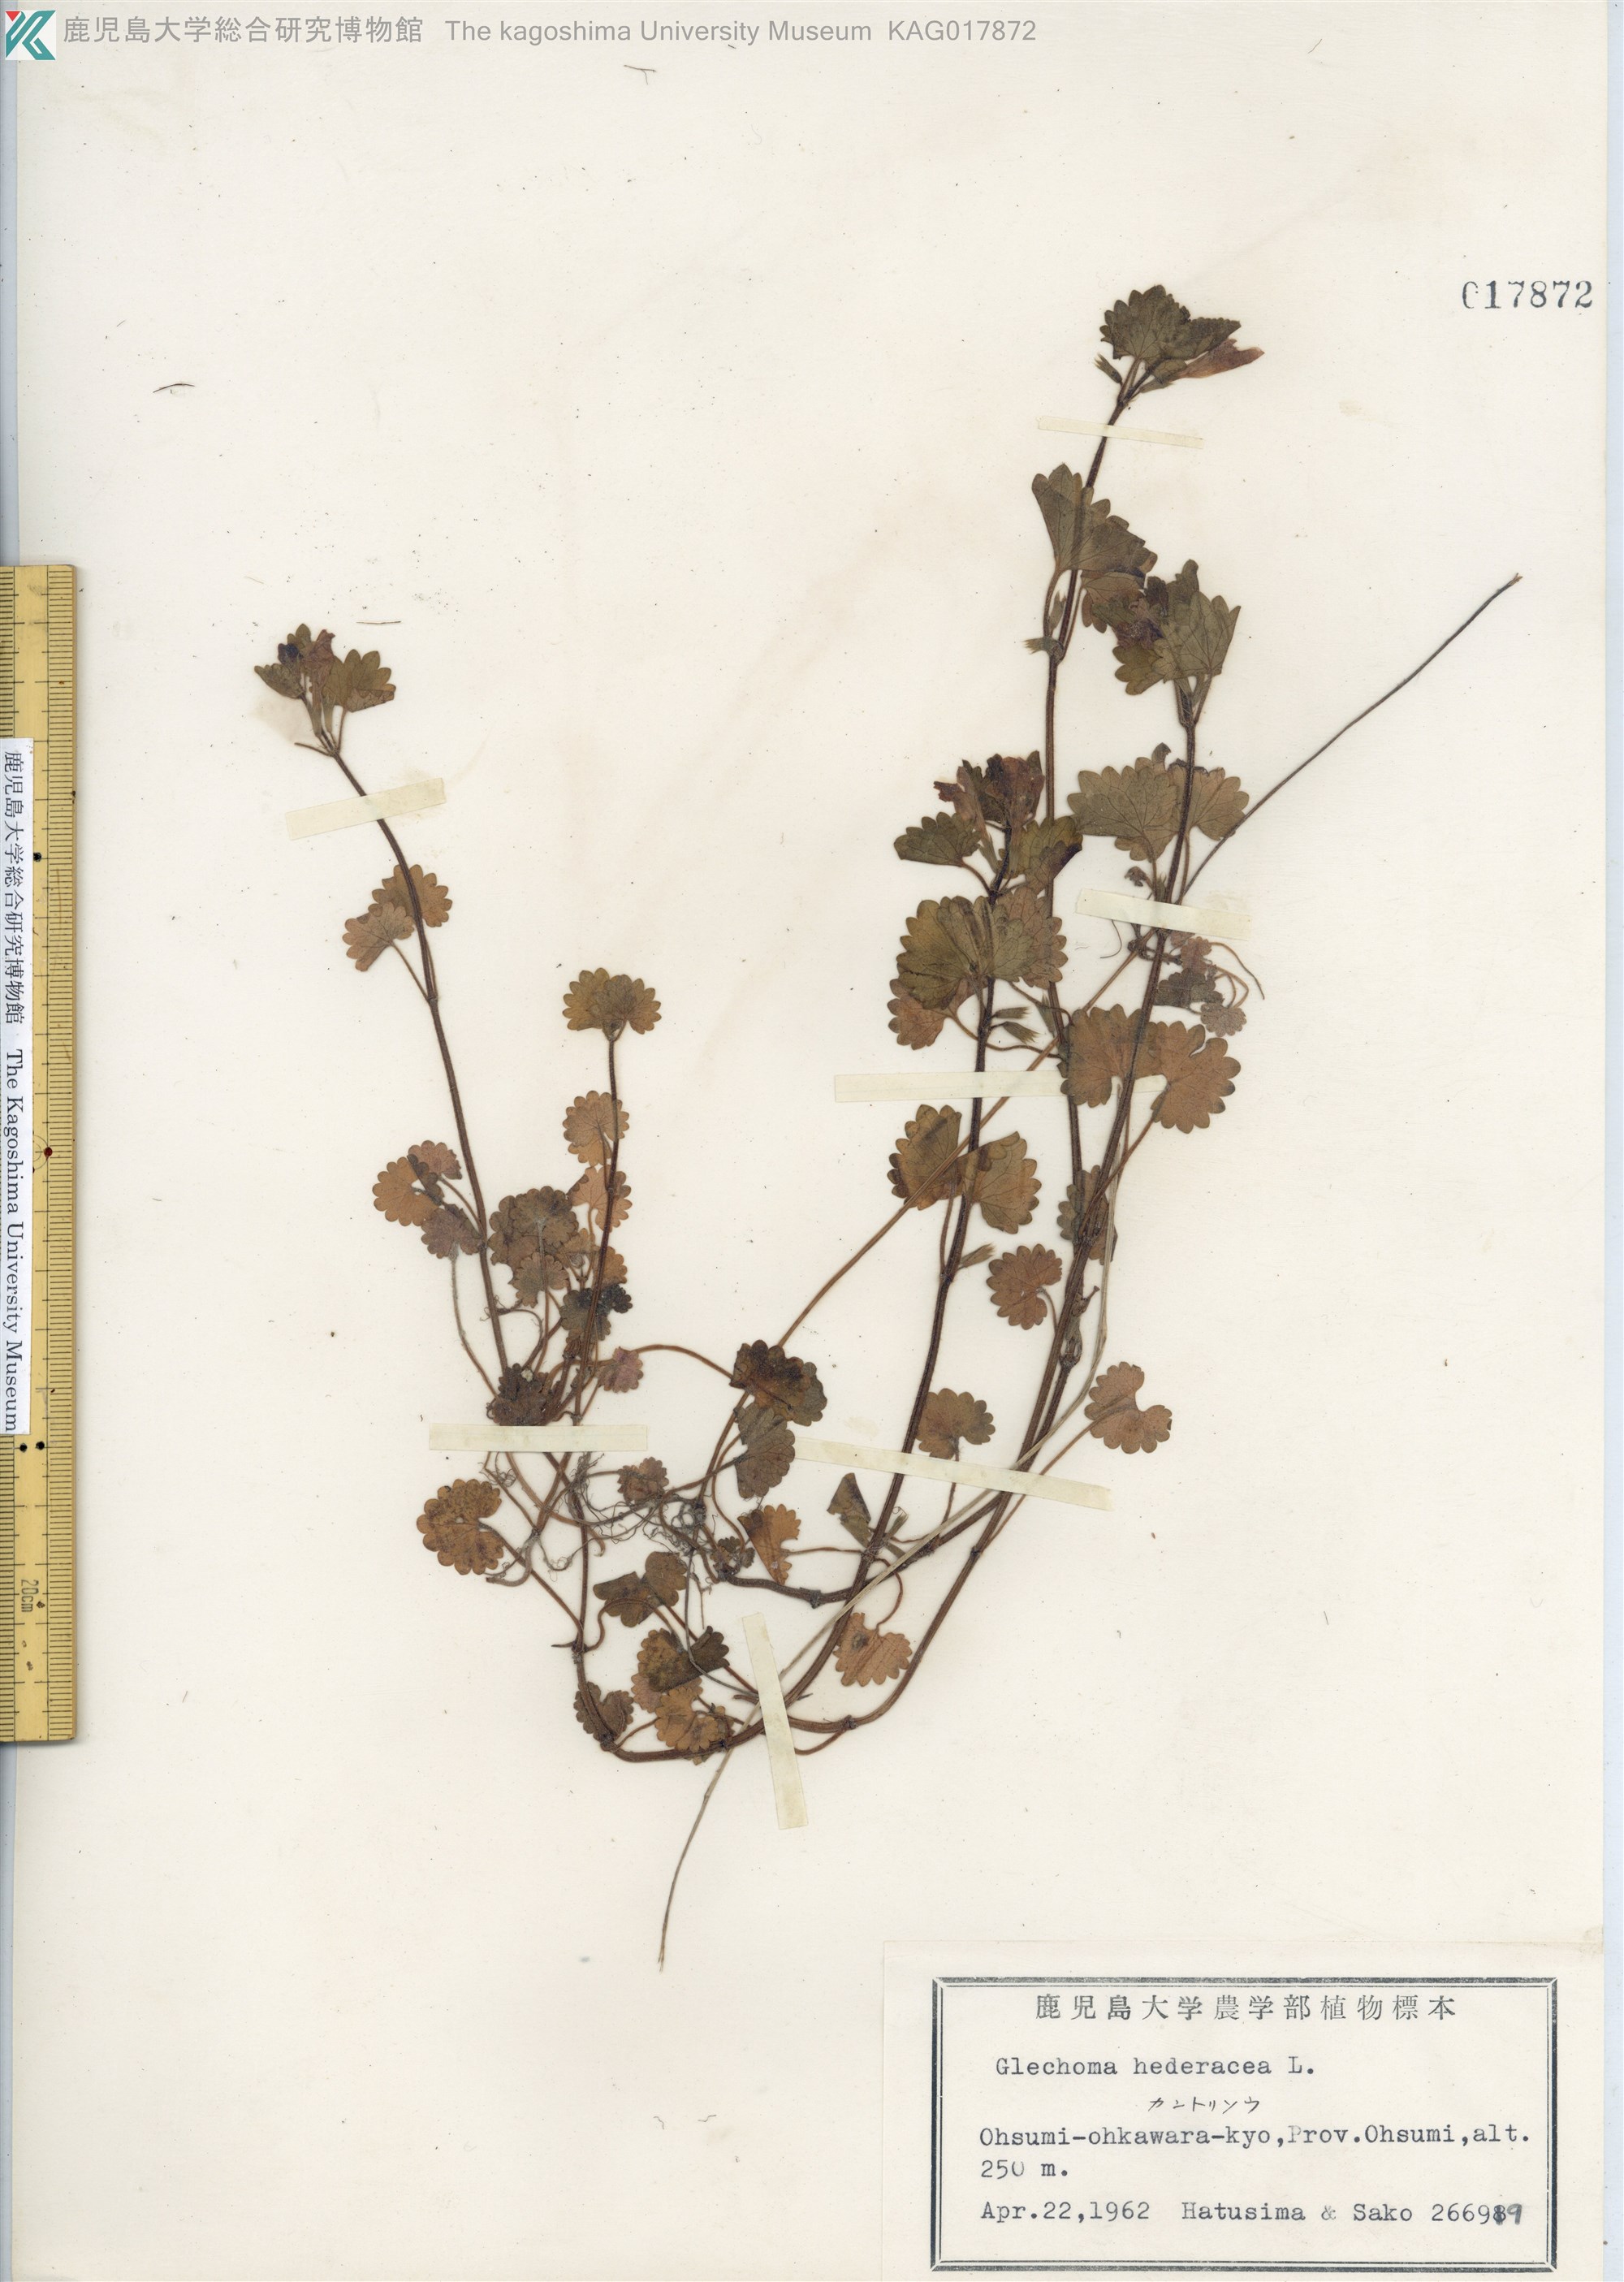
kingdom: Plantae
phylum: Tracheophyta
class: Magnoliopsida
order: Lamiales
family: Lamiaceae
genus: Glechoma
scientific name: Glechoma grandis
